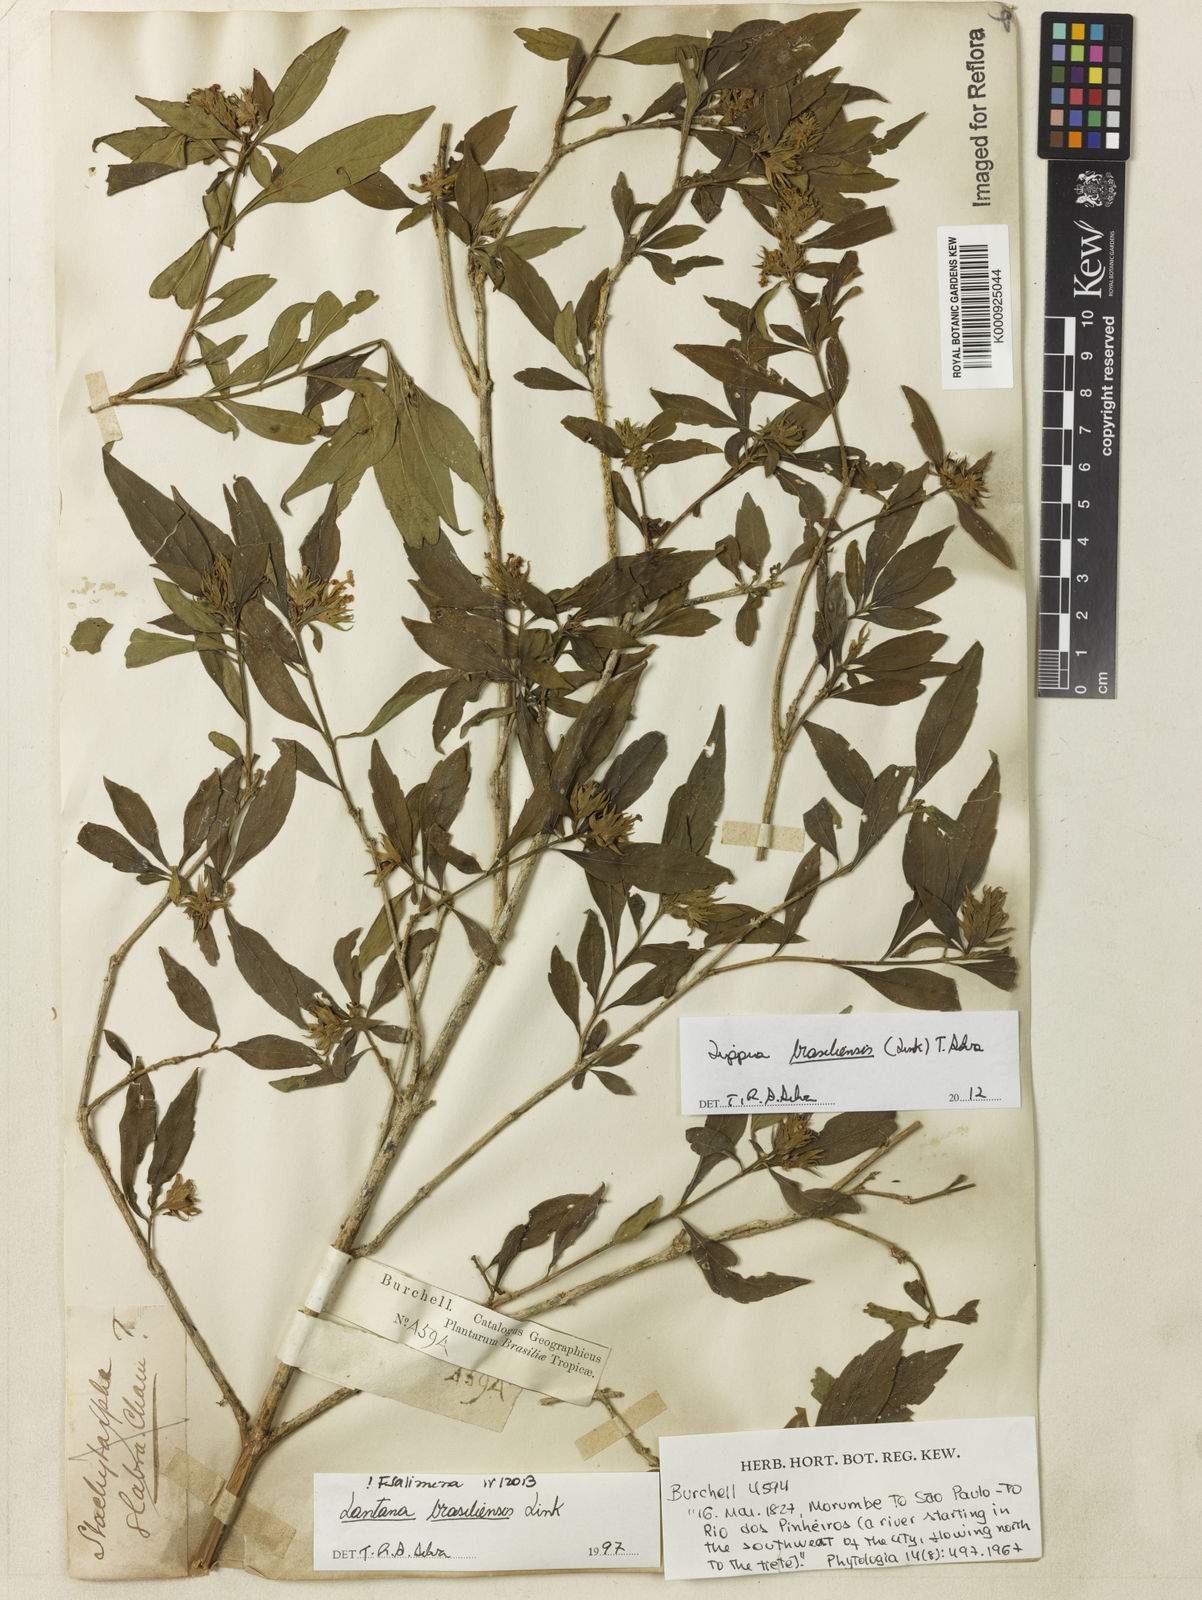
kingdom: Plantae
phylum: Tracheophyta
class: Magnoliopsida
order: Lamiales
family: Verbenaceae
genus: Lippia
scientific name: Lippia brasiliensis
